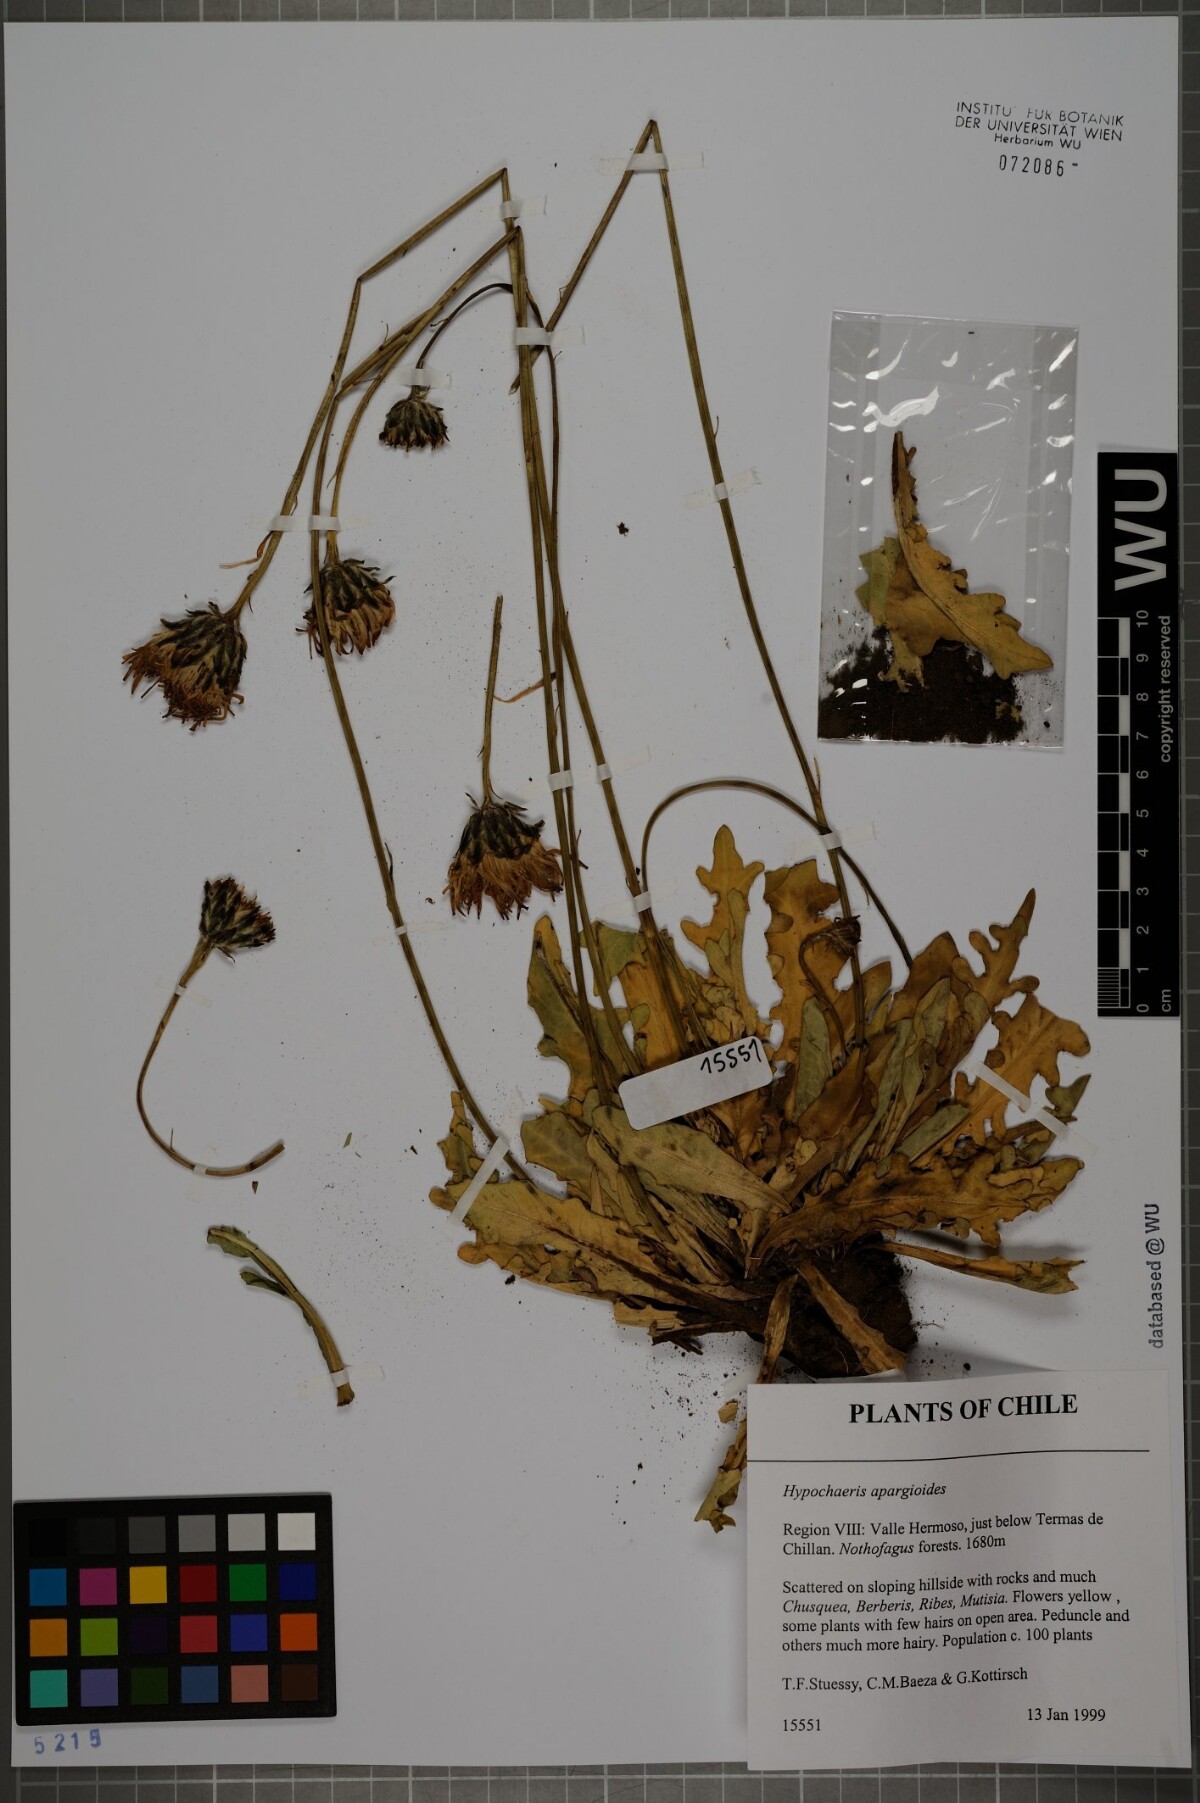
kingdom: Plantae
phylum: Tracheophyta
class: Magnoliopsida
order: Asterales
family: Asteraceae
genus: Hypochaeris
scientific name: Hypochaeris apargioides
